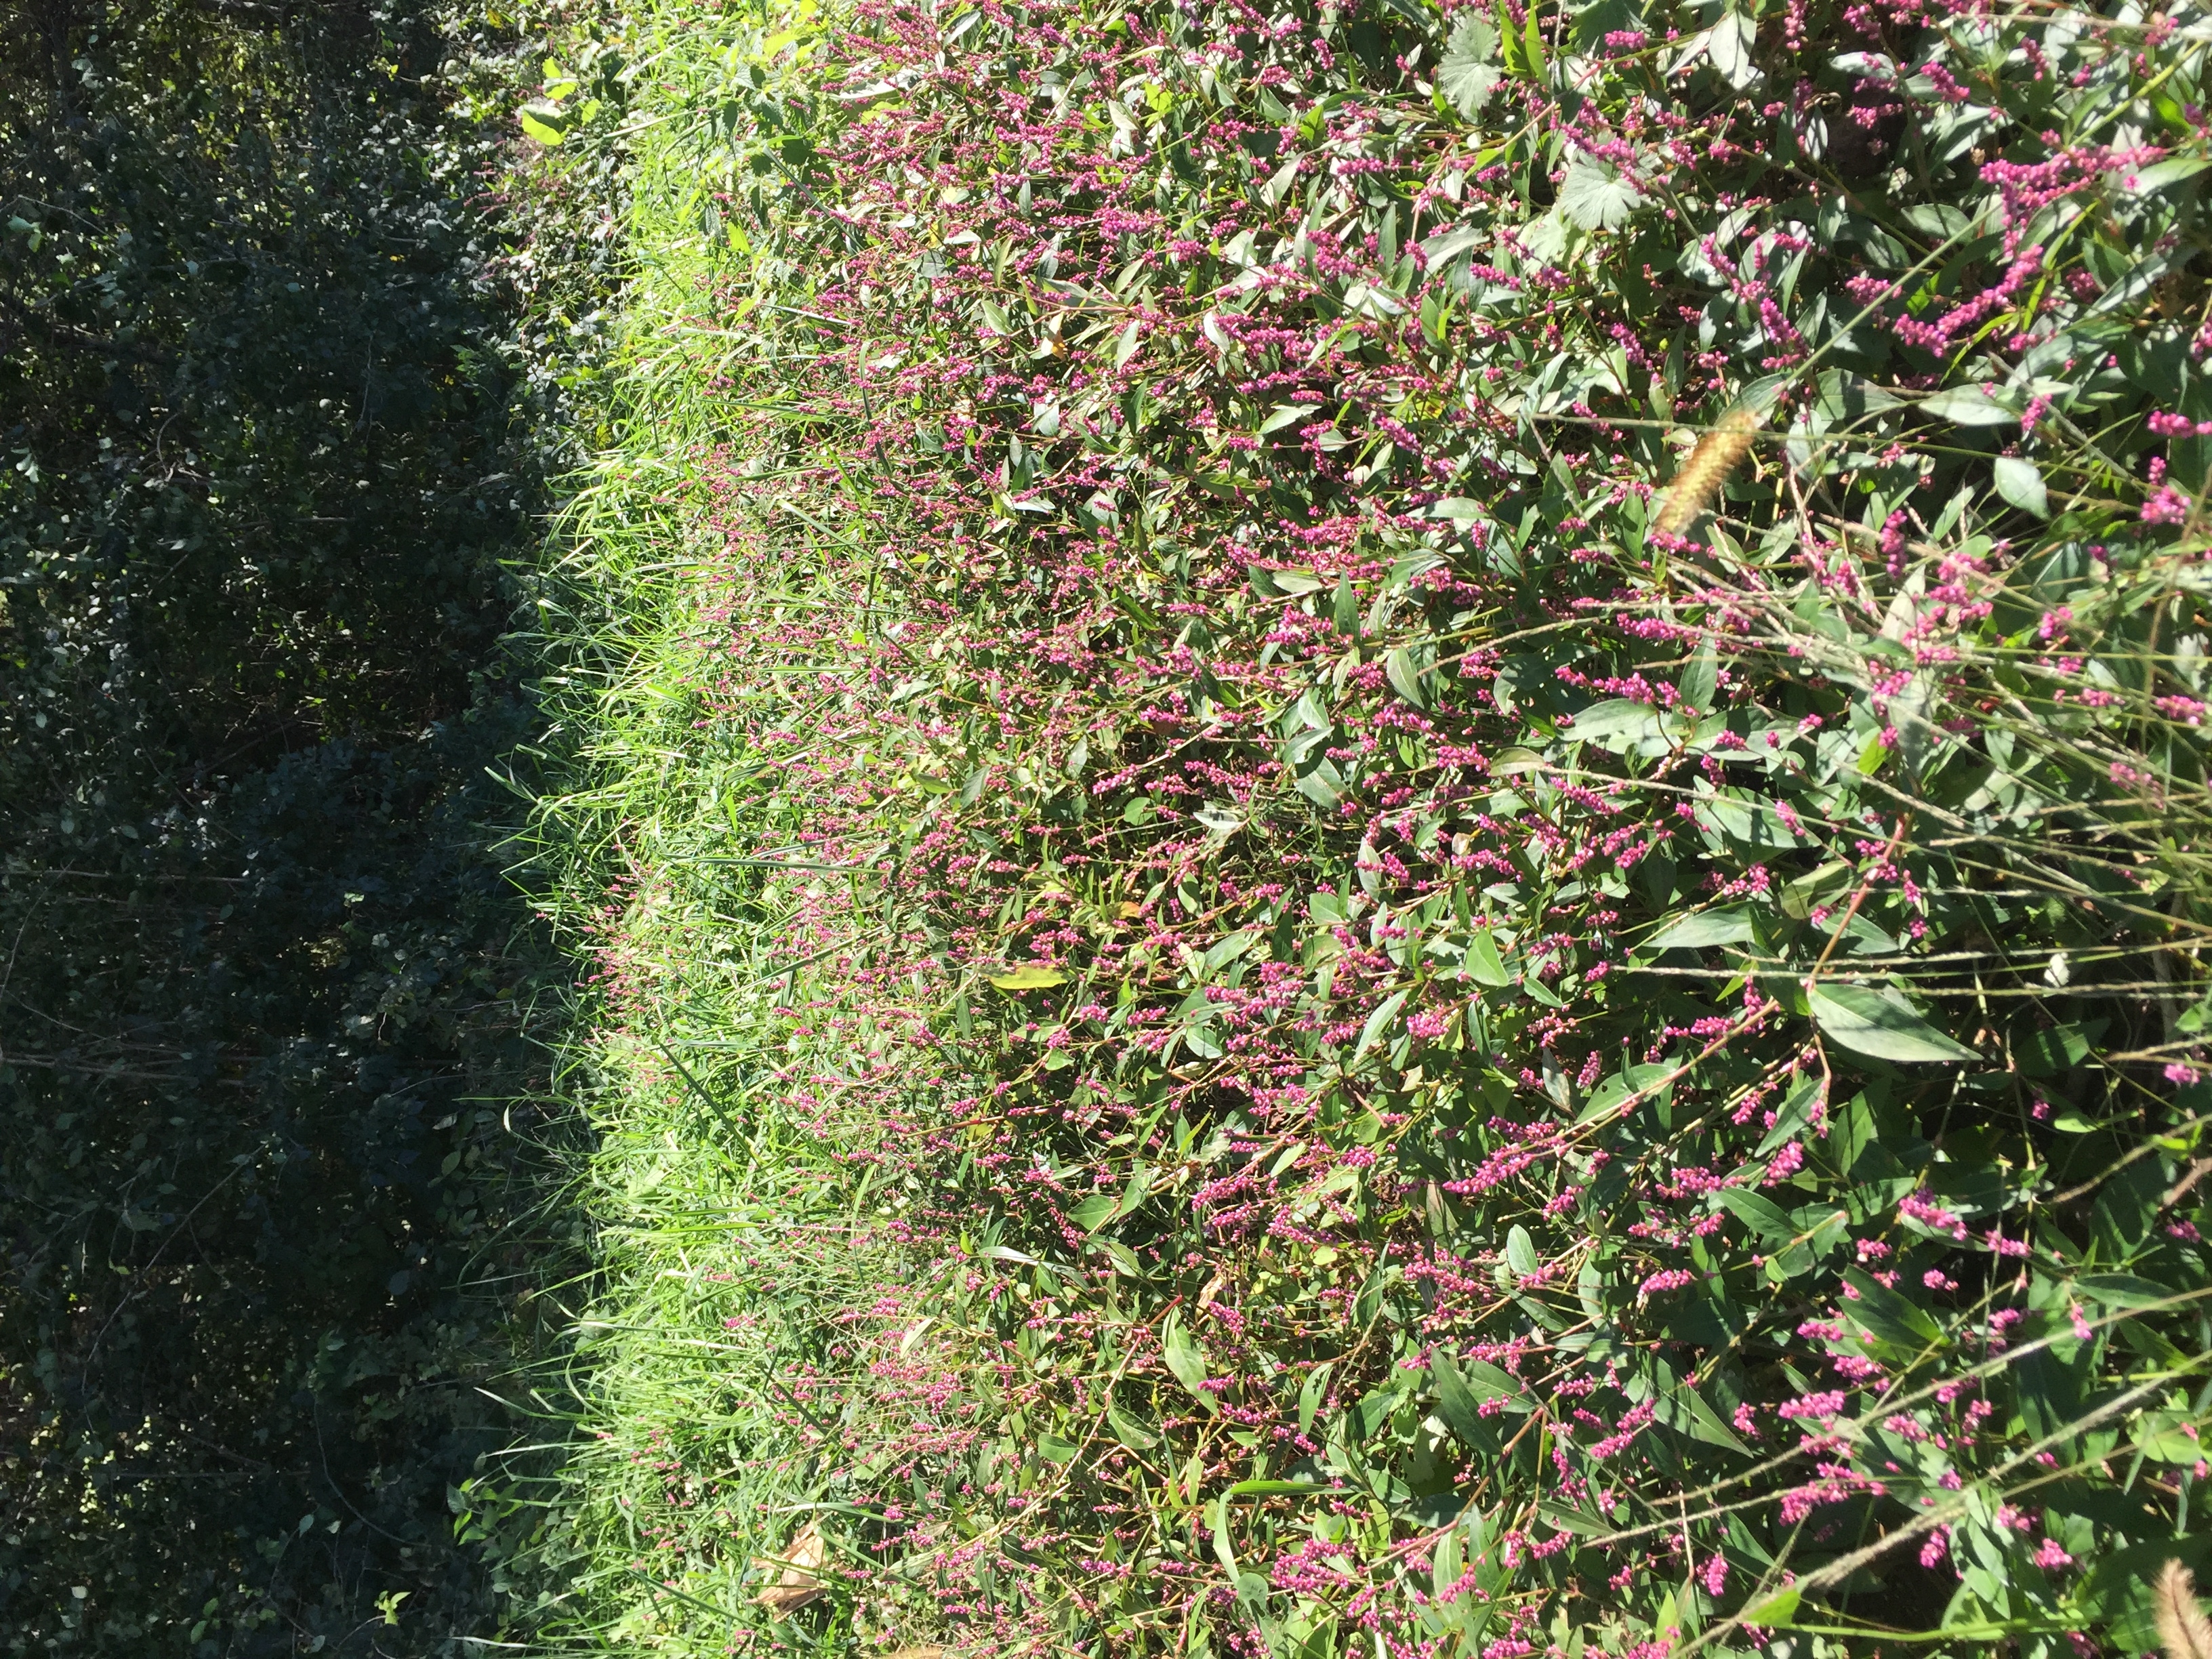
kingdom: Plantae
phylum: Tracheophyta
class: Magnoliopsida
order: Caryophyllales
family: Polygonaceae
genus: Persicaria
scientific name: Persicaria longiseta
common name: Smartweed
